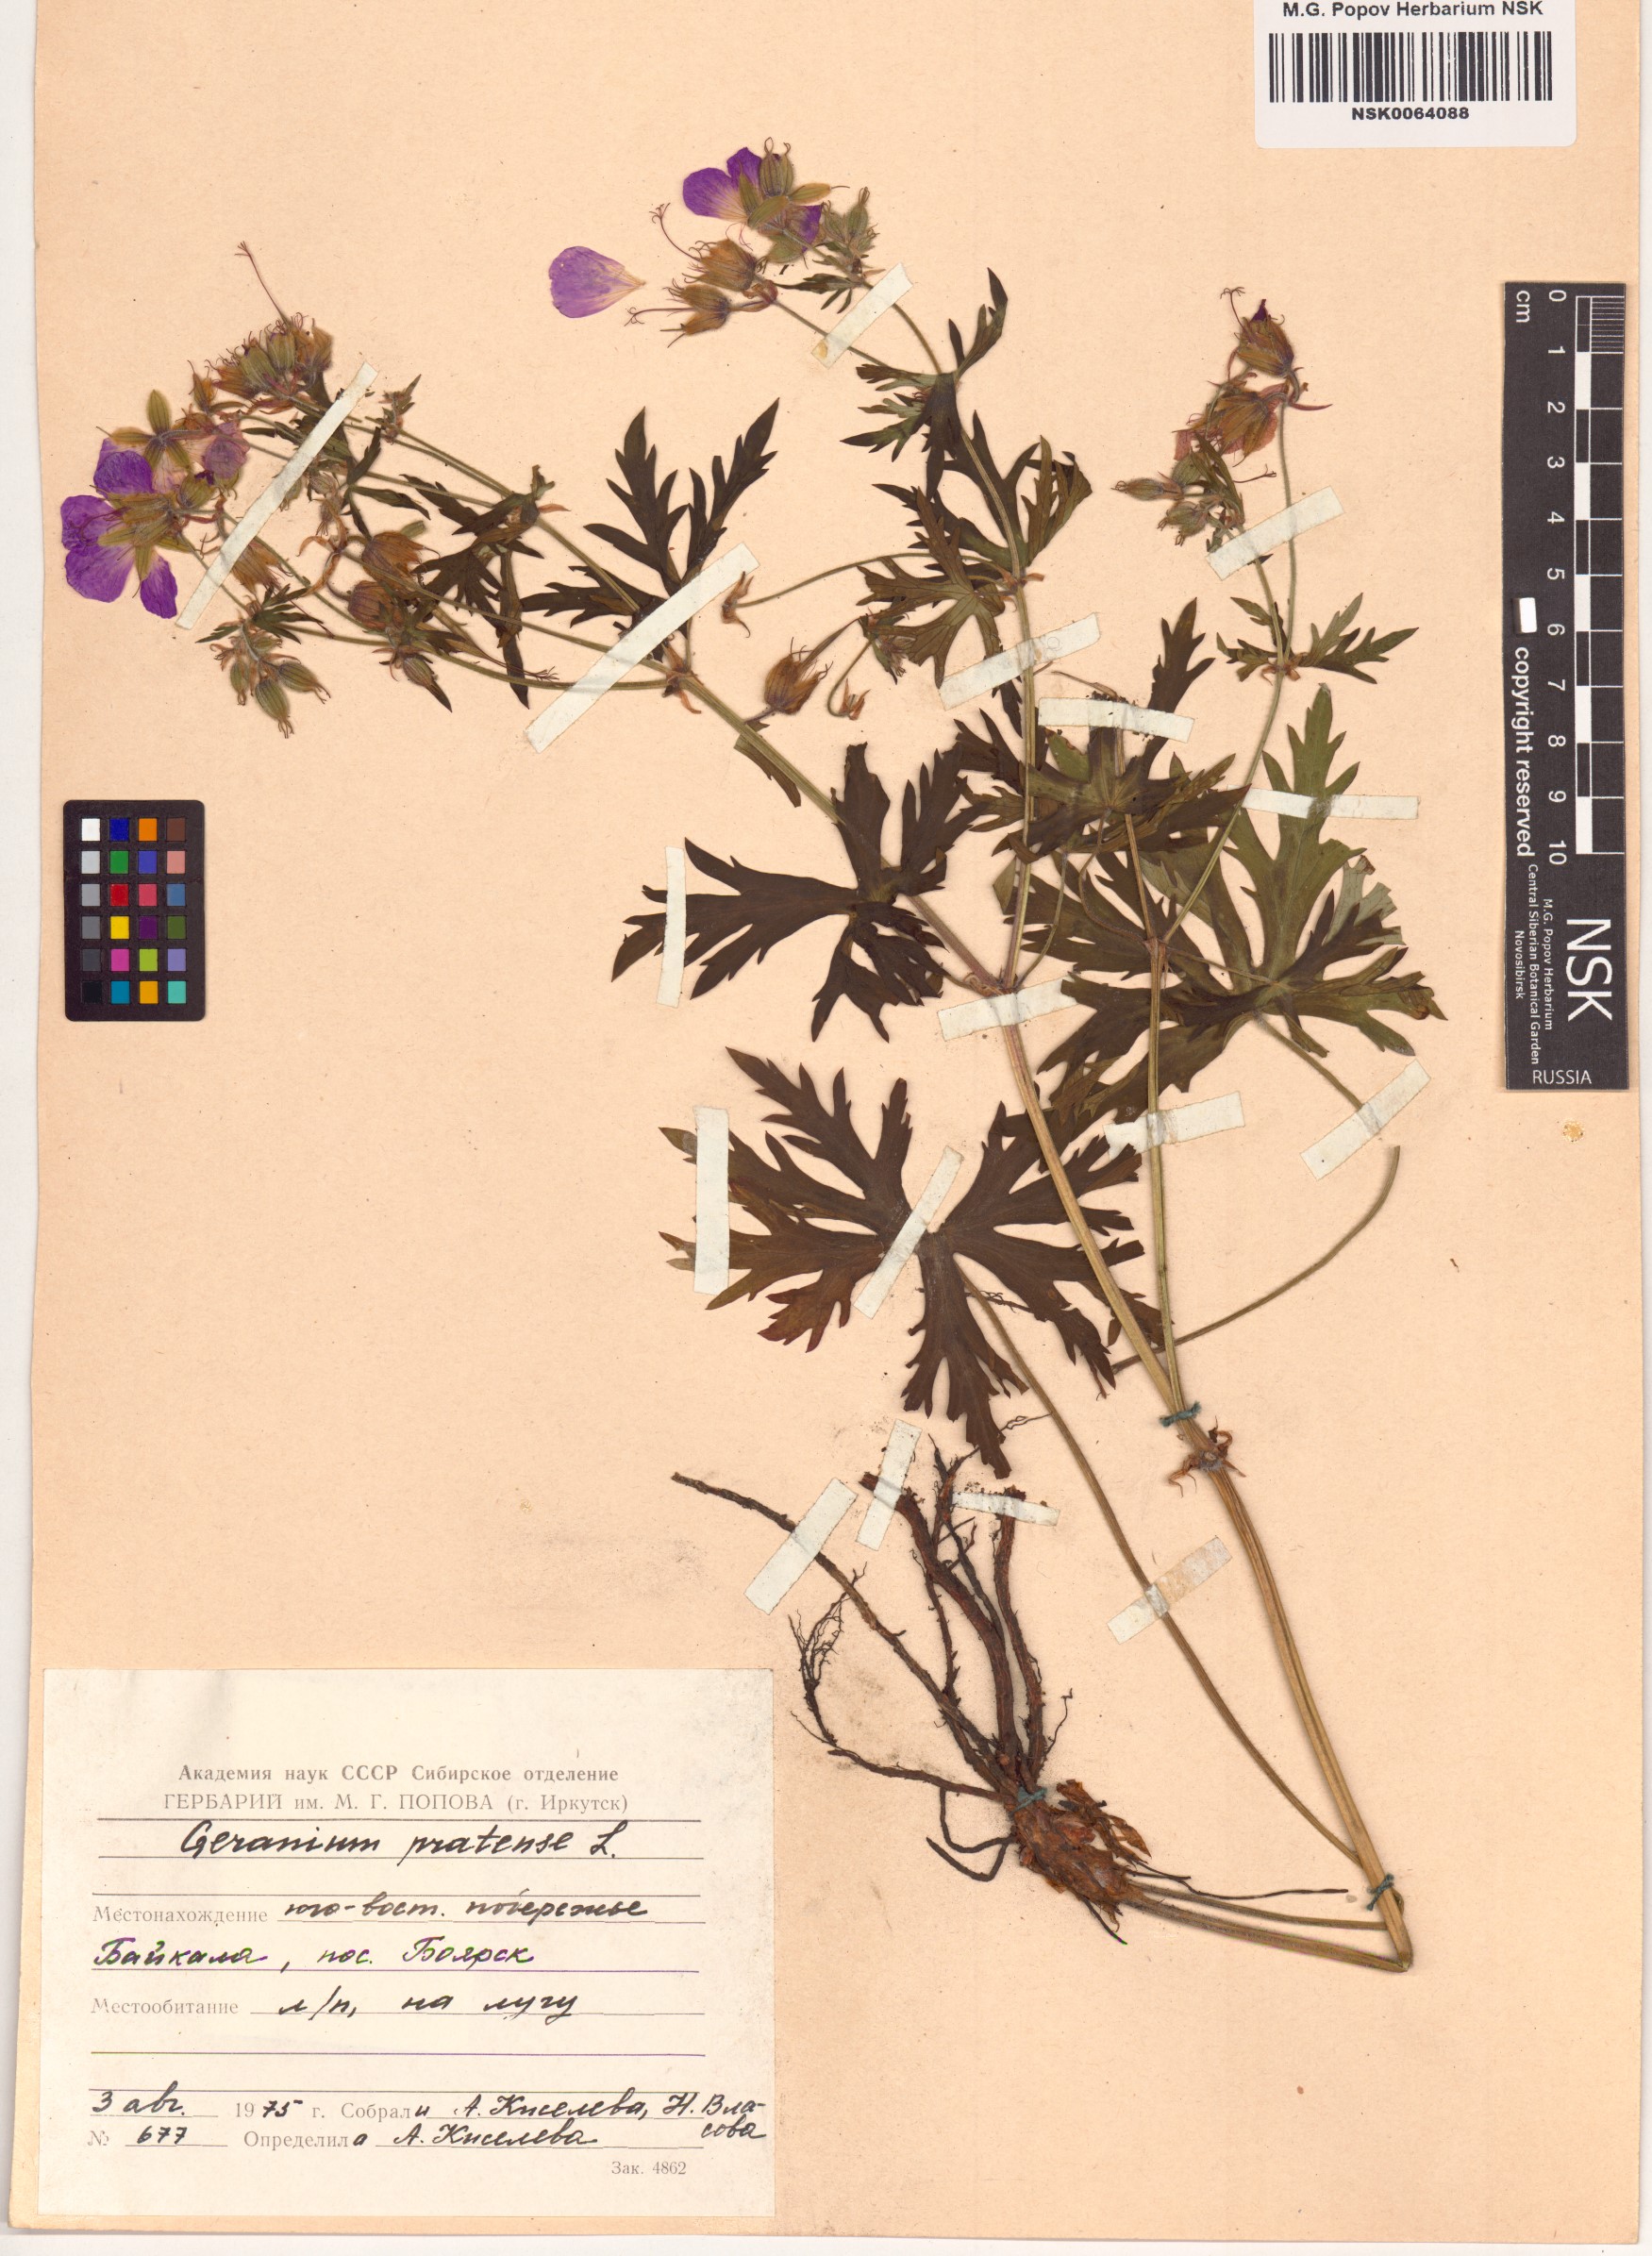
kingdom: Plantae
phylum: Tracheophyta
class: Magnoliopsida
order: Geraniales
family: Geraniaceae
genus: Geranium
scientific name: Geranium pratense
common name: Meadow crane's-bill
